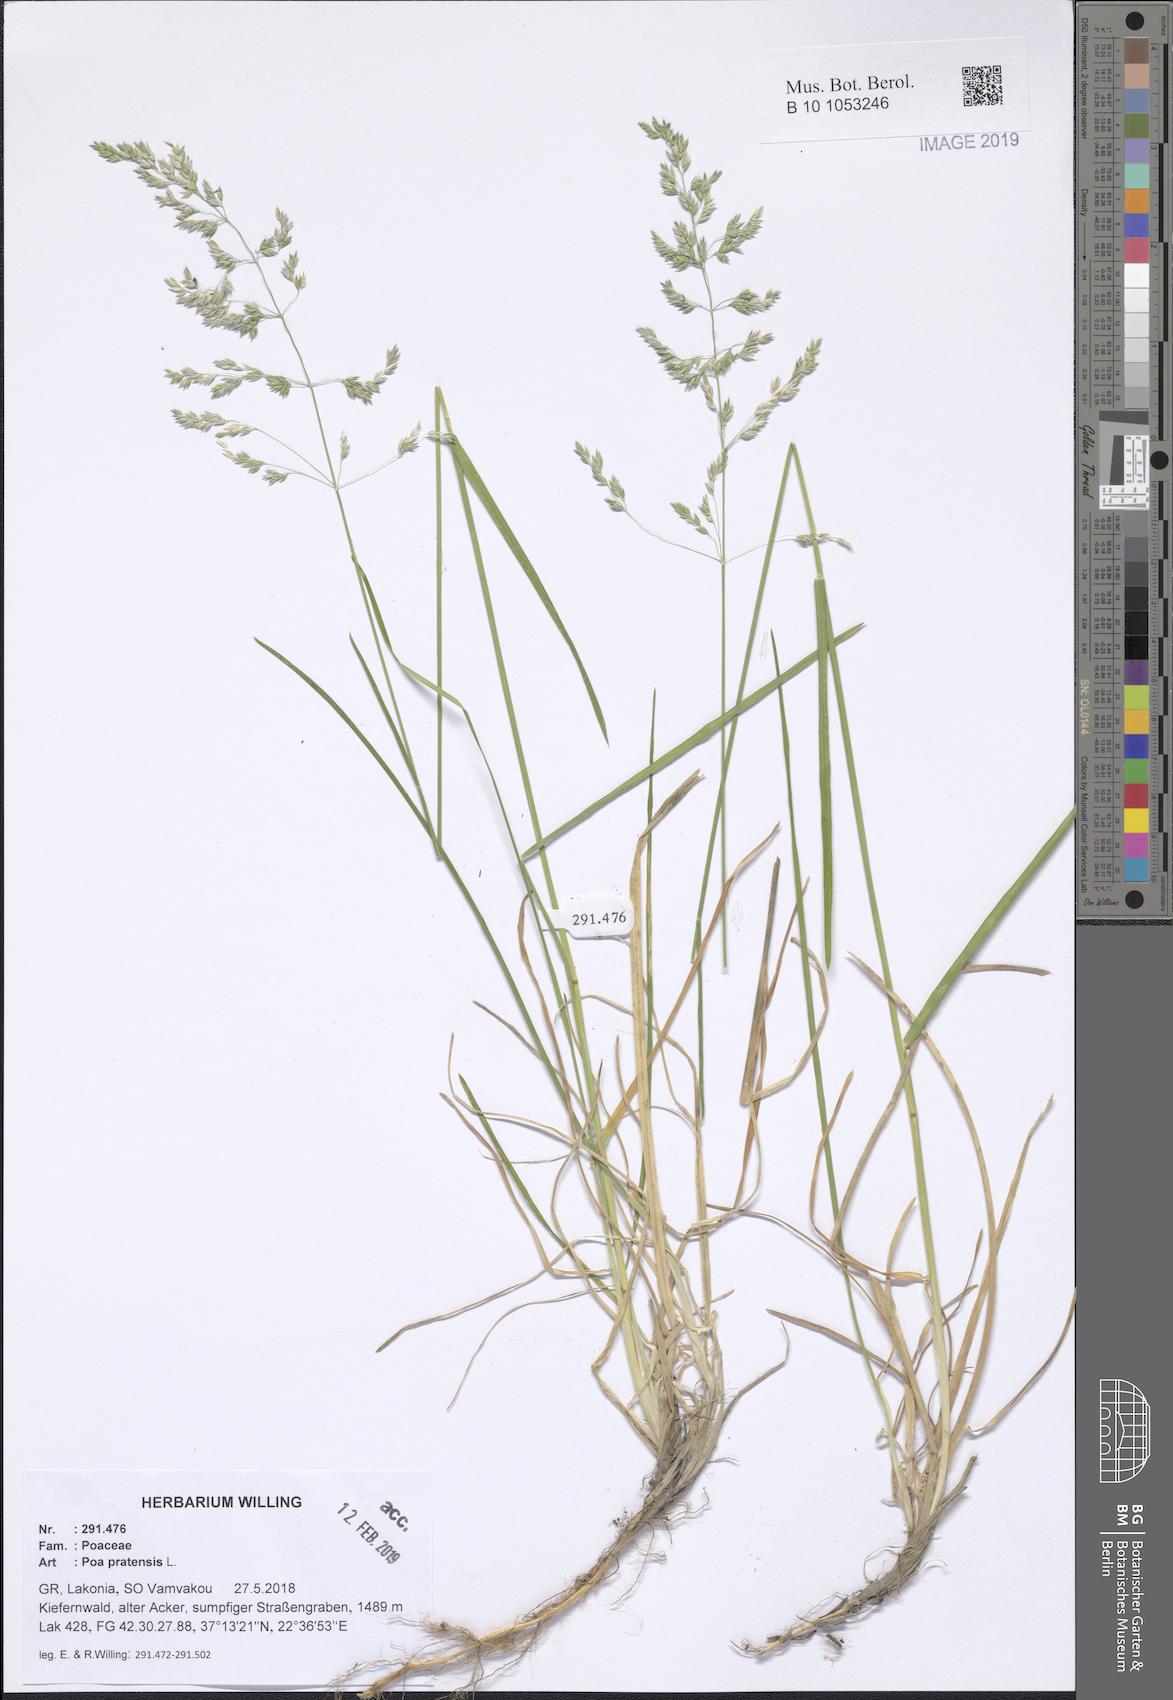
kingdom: Plantae
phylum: Tracheophyta
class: Liliopsida
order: Poales
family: Poaceae
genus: Poa
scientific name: Poa pratensis
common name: Kentucky bluegrass
